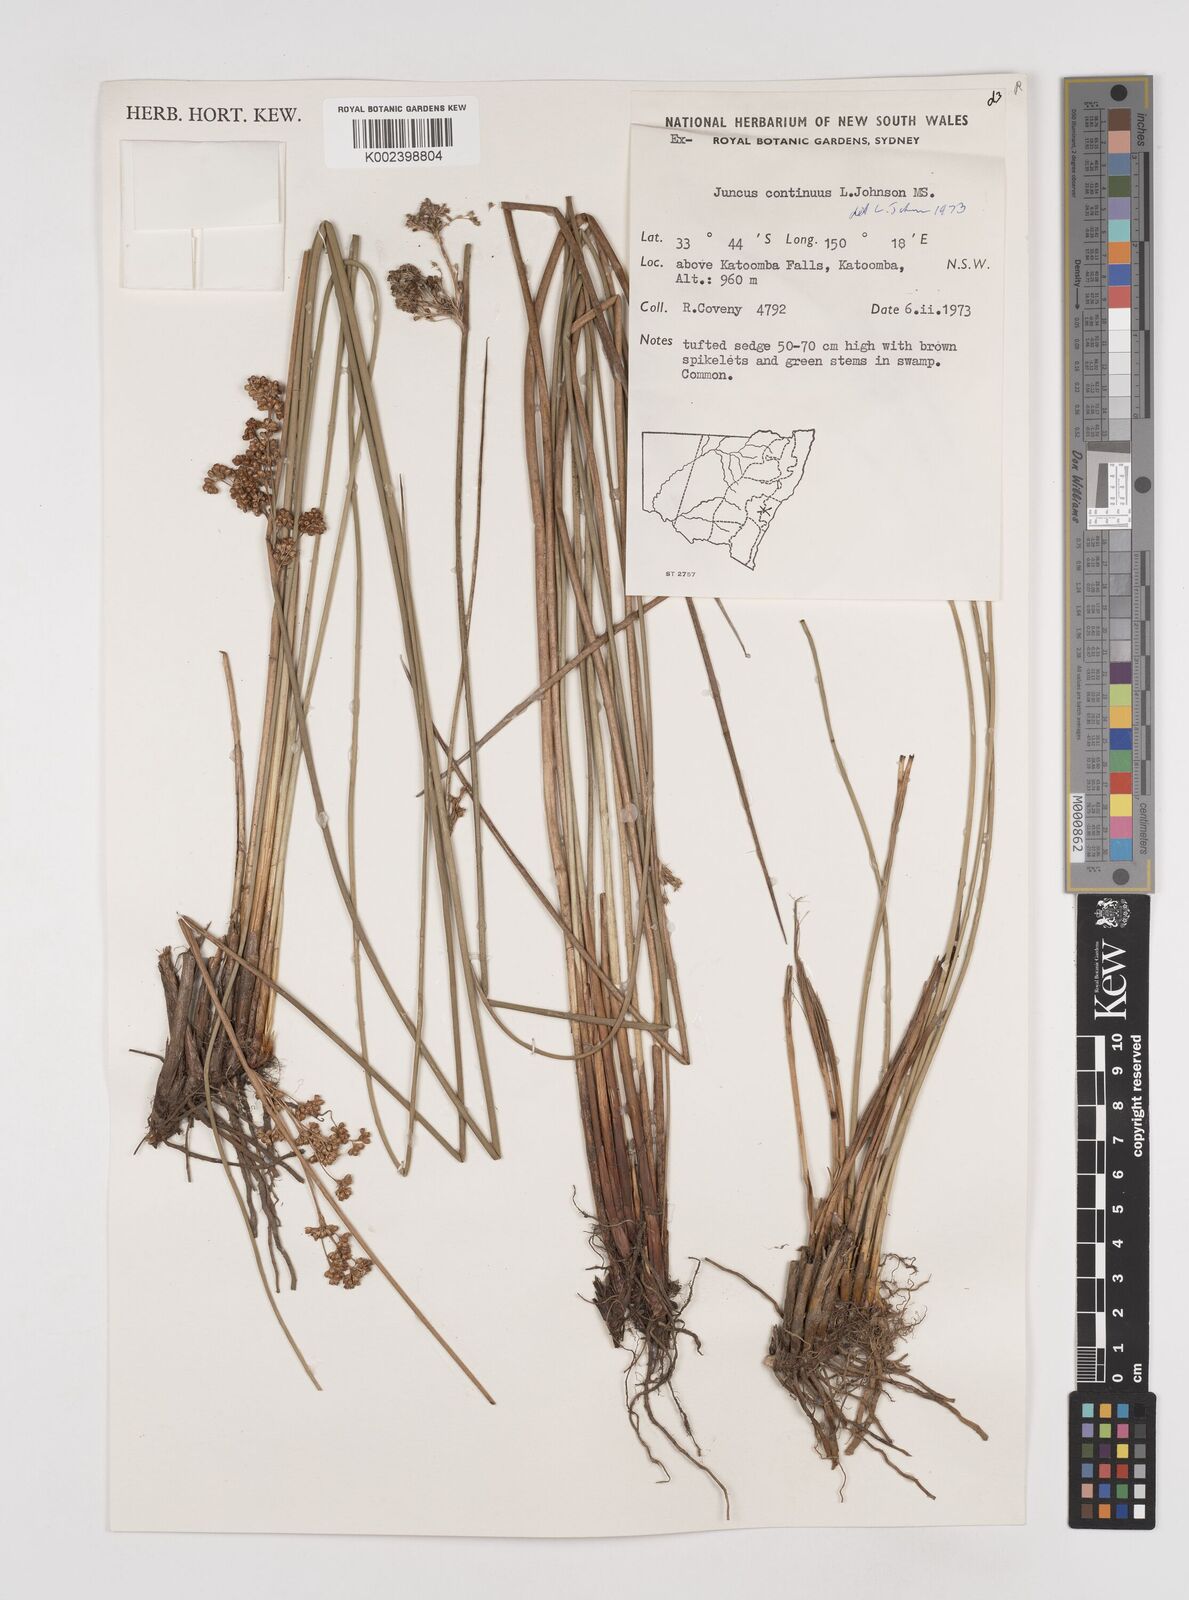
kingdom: Plantae
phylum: Tracheophyta
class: Liliopsida
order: Poales
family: Juncaceae
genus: Juncus
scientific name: Juncus continuus
